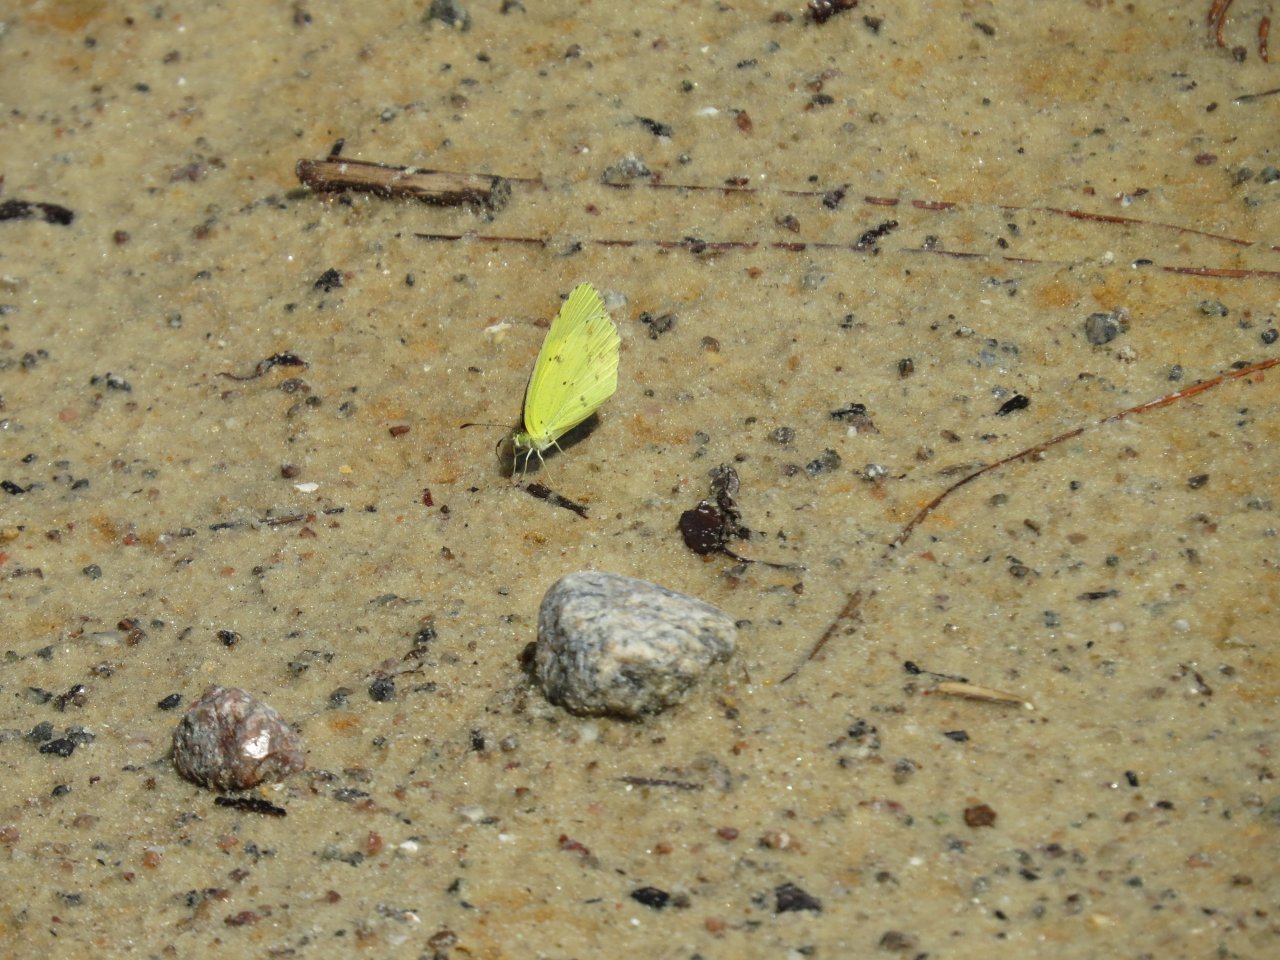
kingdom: Animalia
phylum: Arthropoda
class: Insecta
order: Lepidoptera
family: Pieridae
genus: Pyrisitia
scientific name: Pyrisitia lisa
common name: Little Yellow
